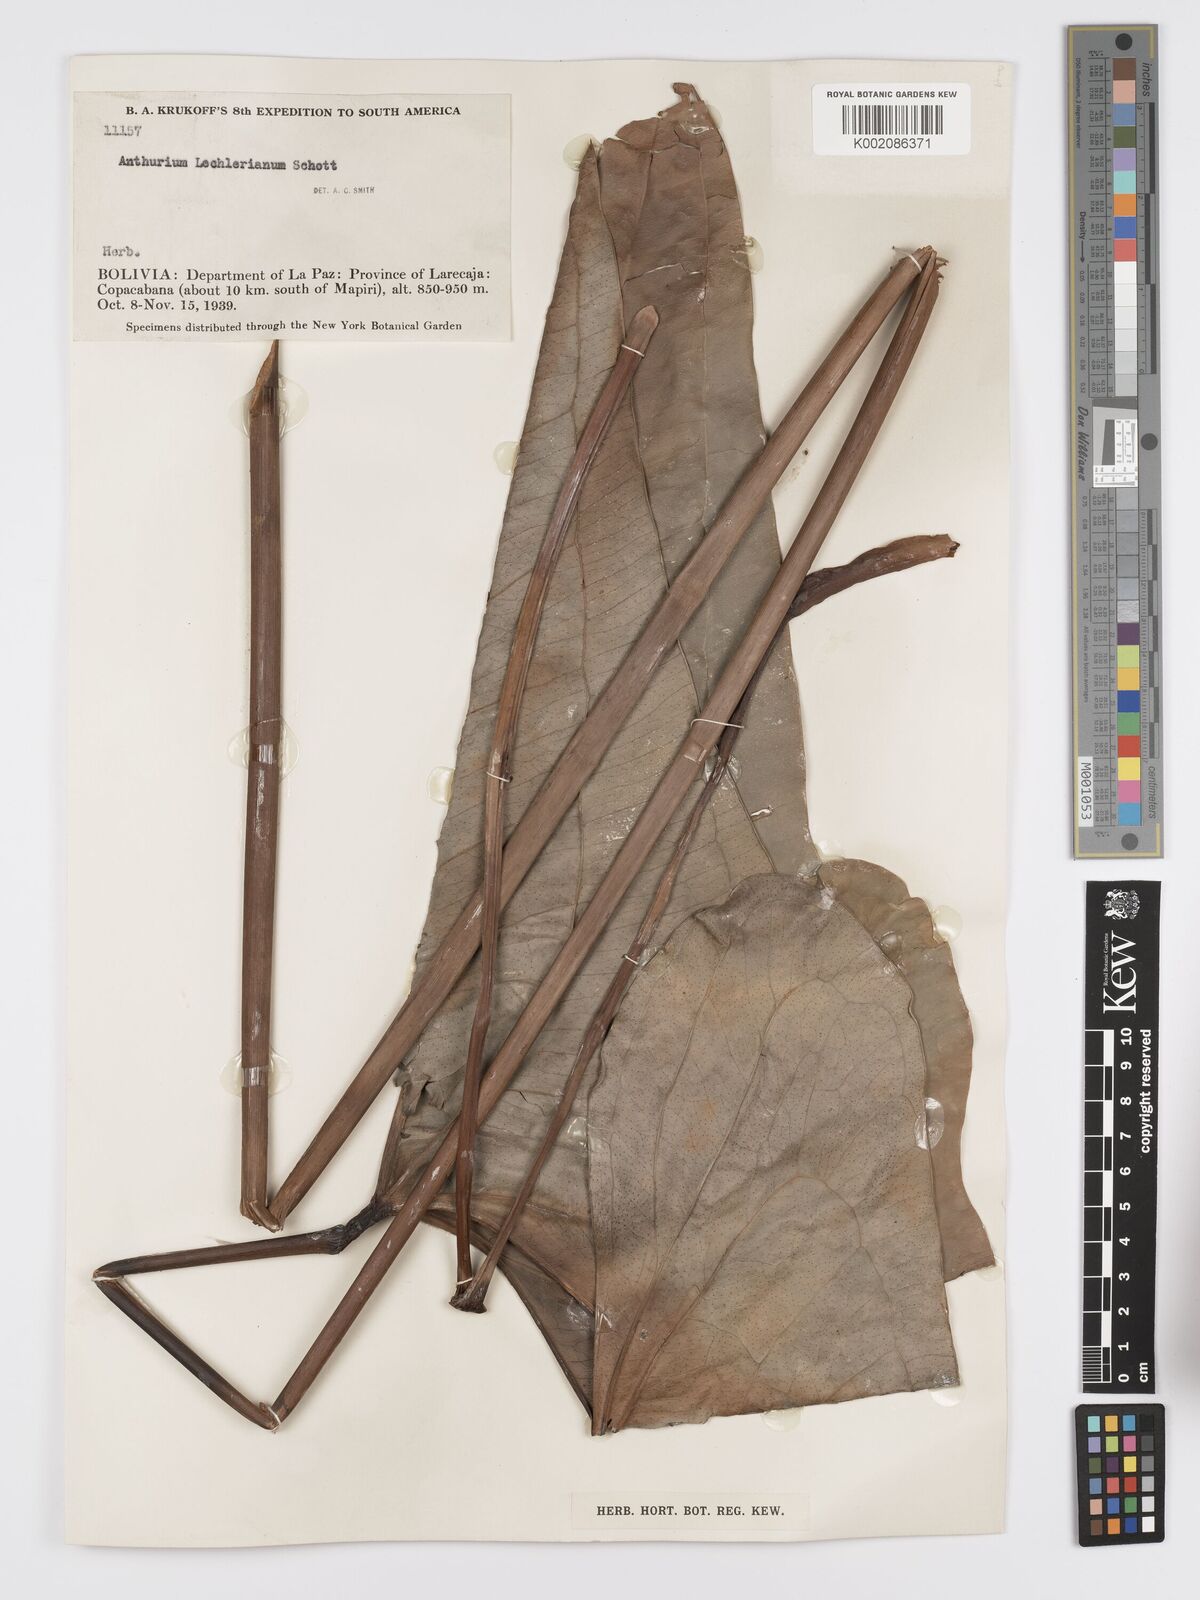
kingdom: Plantae
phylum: Tracheophyta
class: Liliopsida
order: Alismatales
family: Araceae
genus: Anthurium
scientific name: Anthurium lechlerianum
